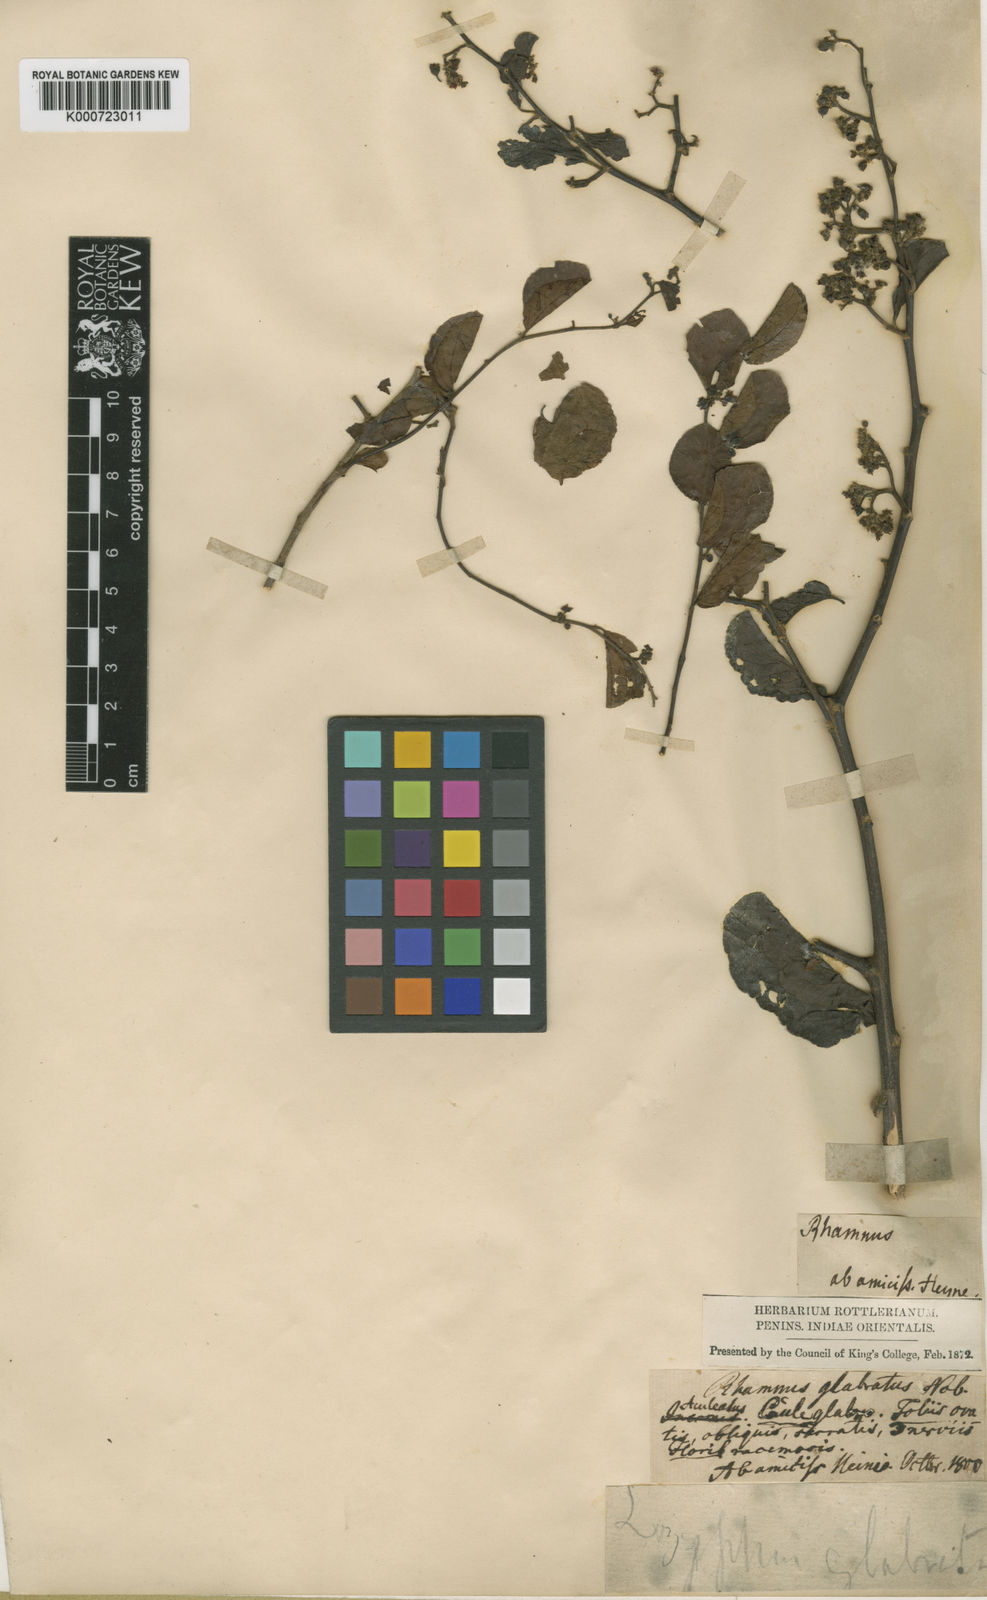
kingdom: Plantae
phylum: Tracheophyta
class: Magnoliopsida
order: Rosales
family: Rhamnaceae
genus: Ziziphus
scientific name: Ziziphus glabrata
